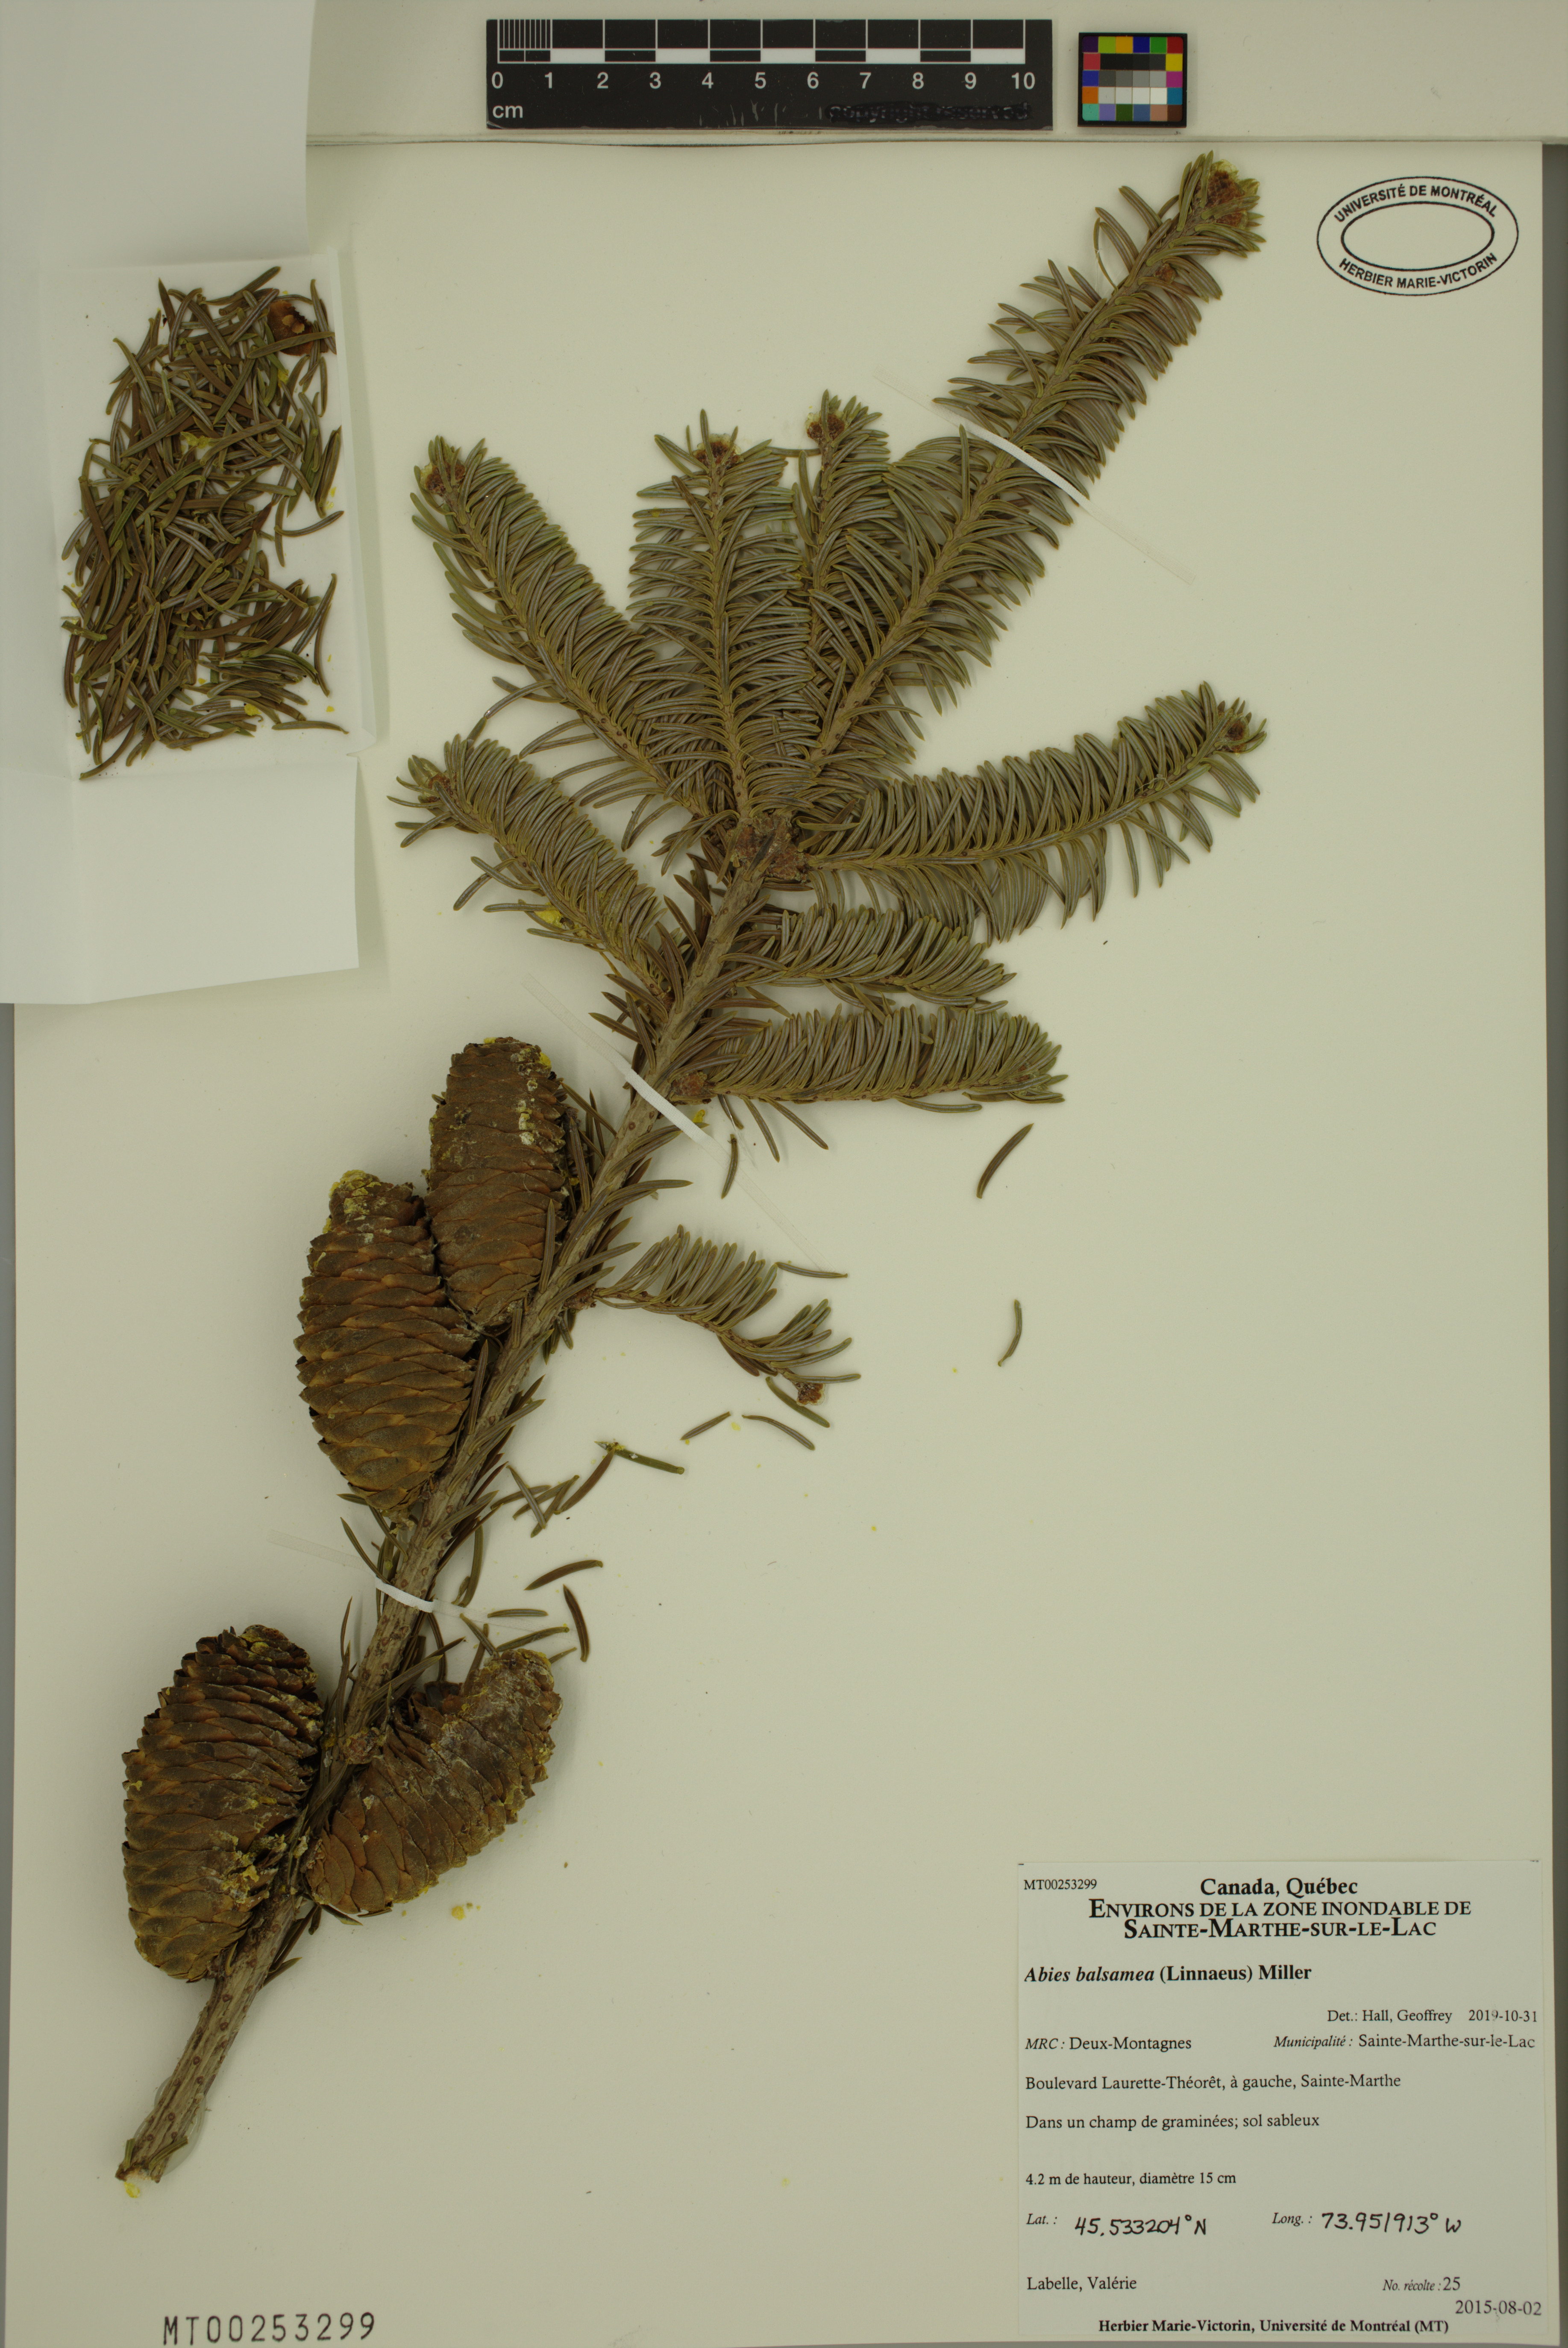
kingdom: Plantae
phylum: Tracheophyta
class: Pinopsida
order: Pinales
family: Pinaceae
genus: Abies
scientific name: Abies balsamea
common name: Balsam fir
